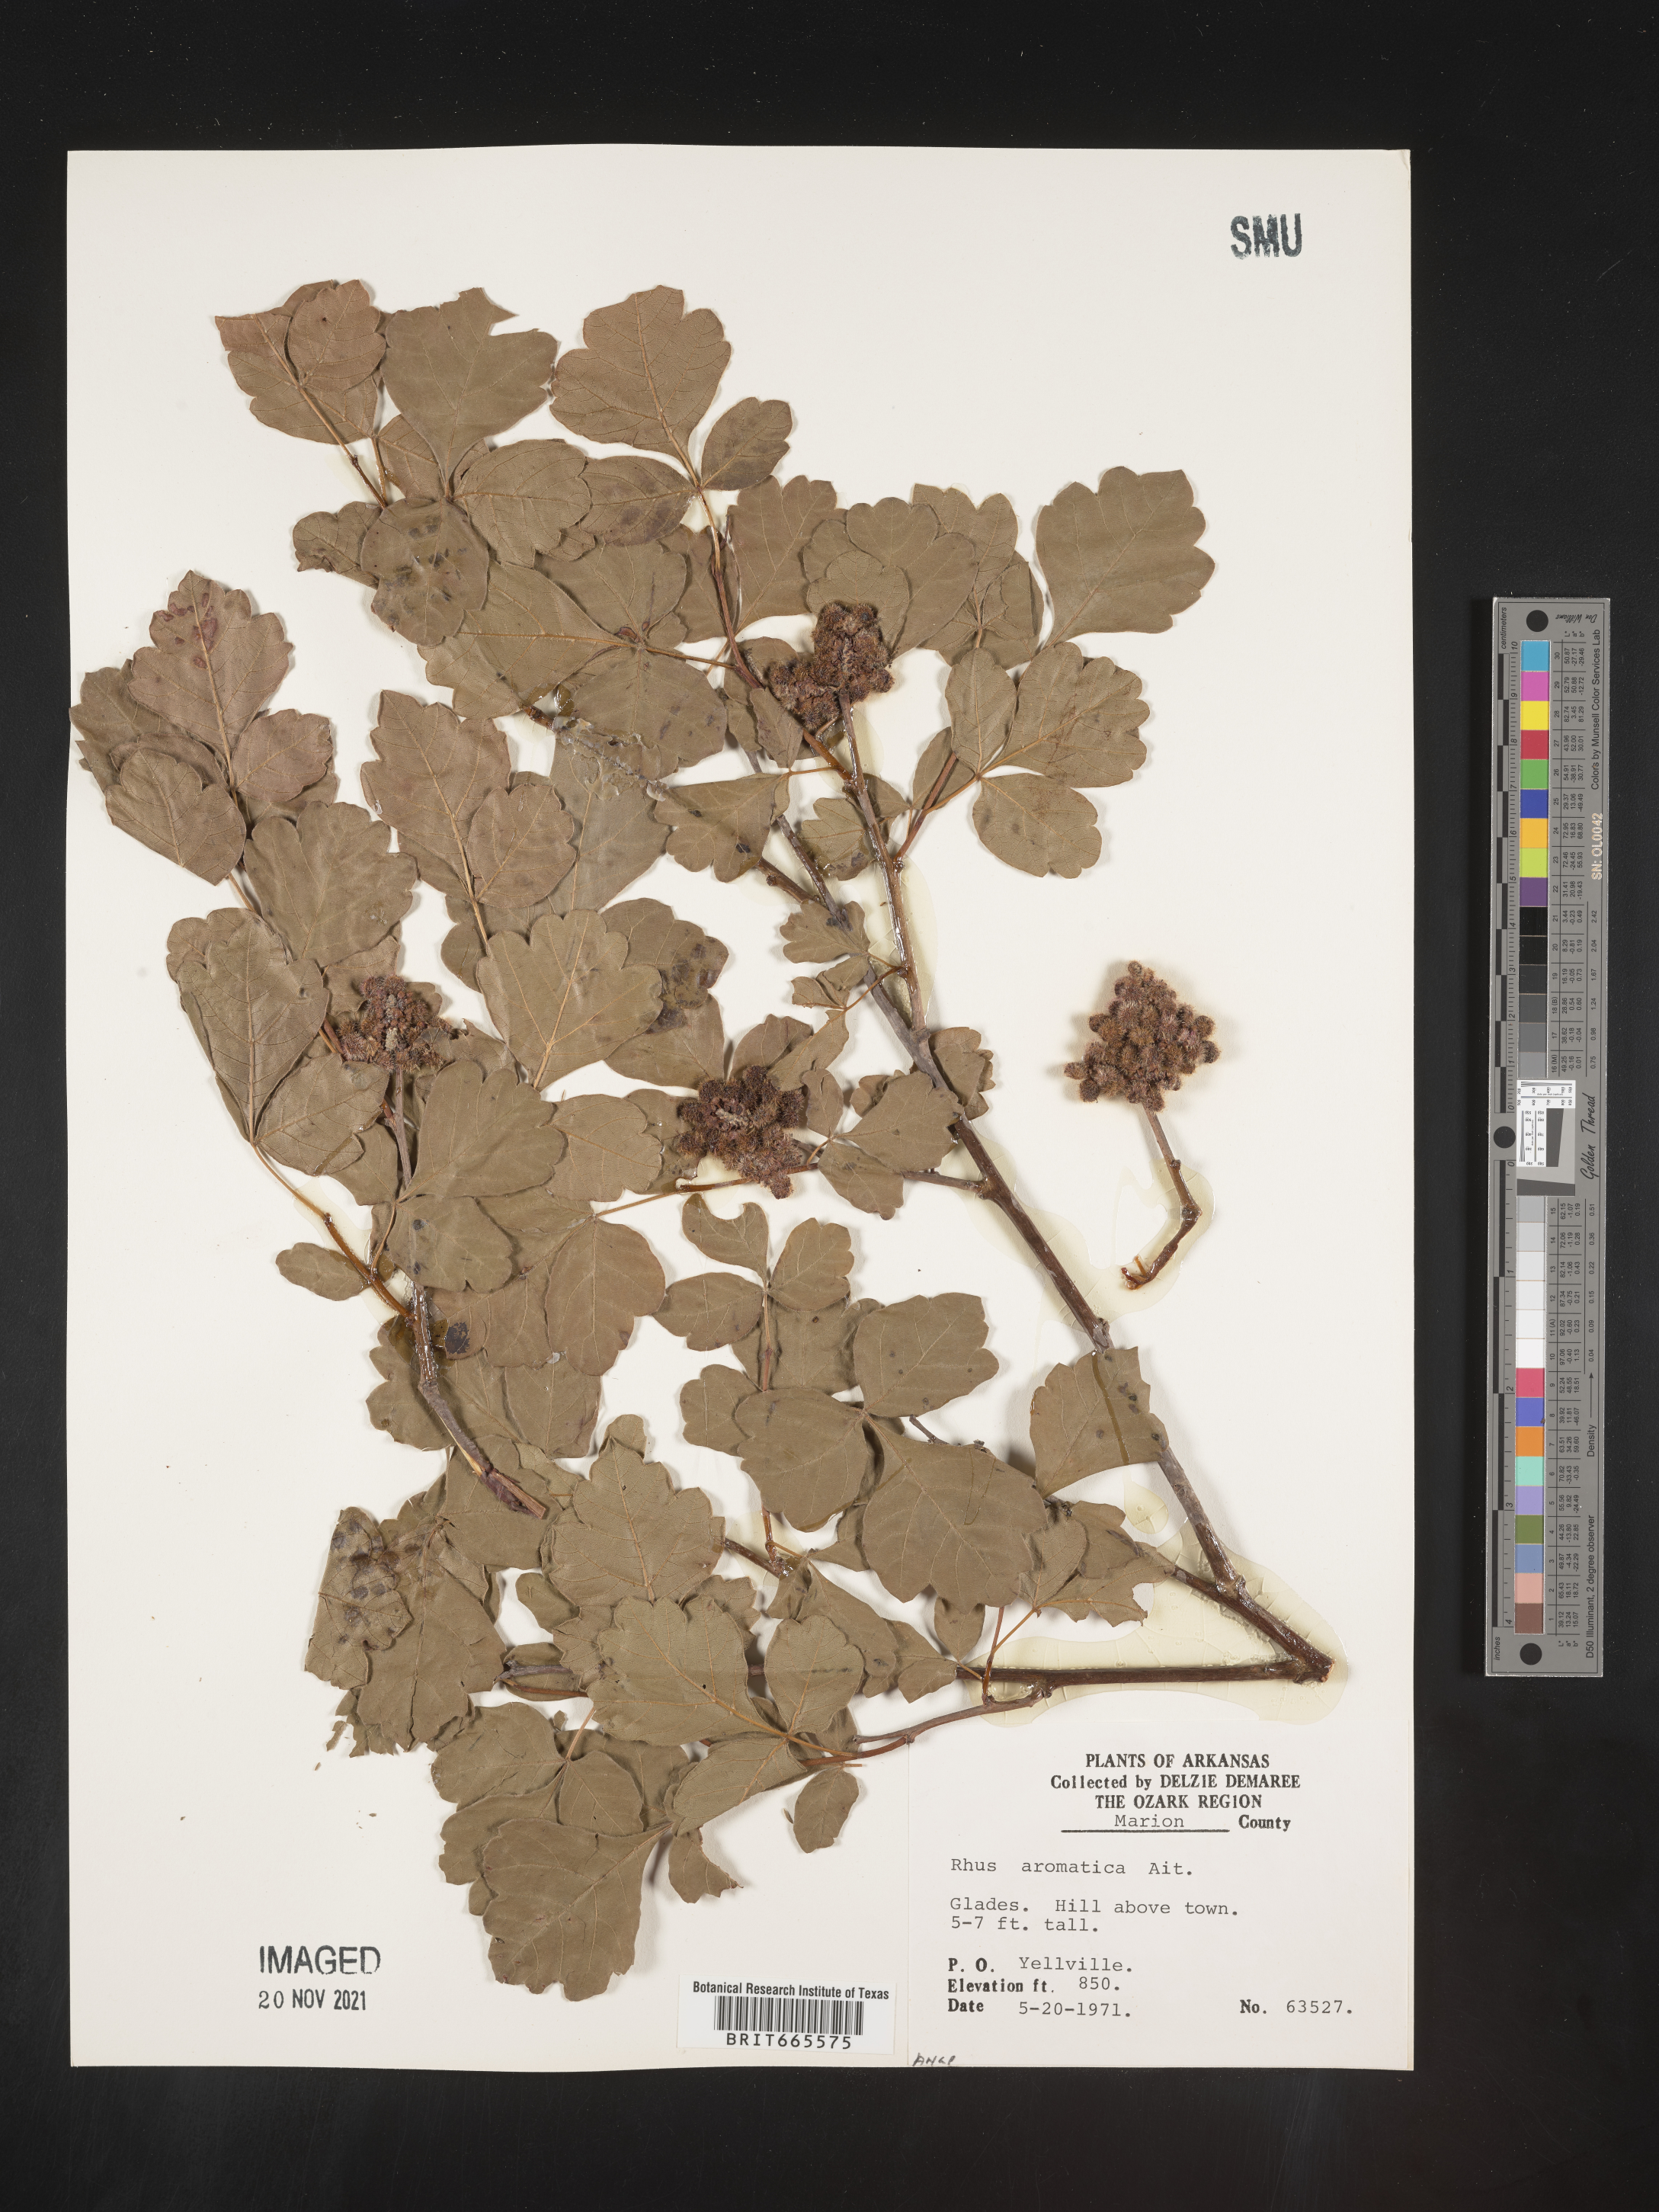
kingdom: Plantae
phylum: Tracheophyta
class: Magnoliopsida
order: Sapindales
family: Anacardiaceae
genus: Rhus
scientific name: Rhus aromatica
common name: Aromatic sumac
